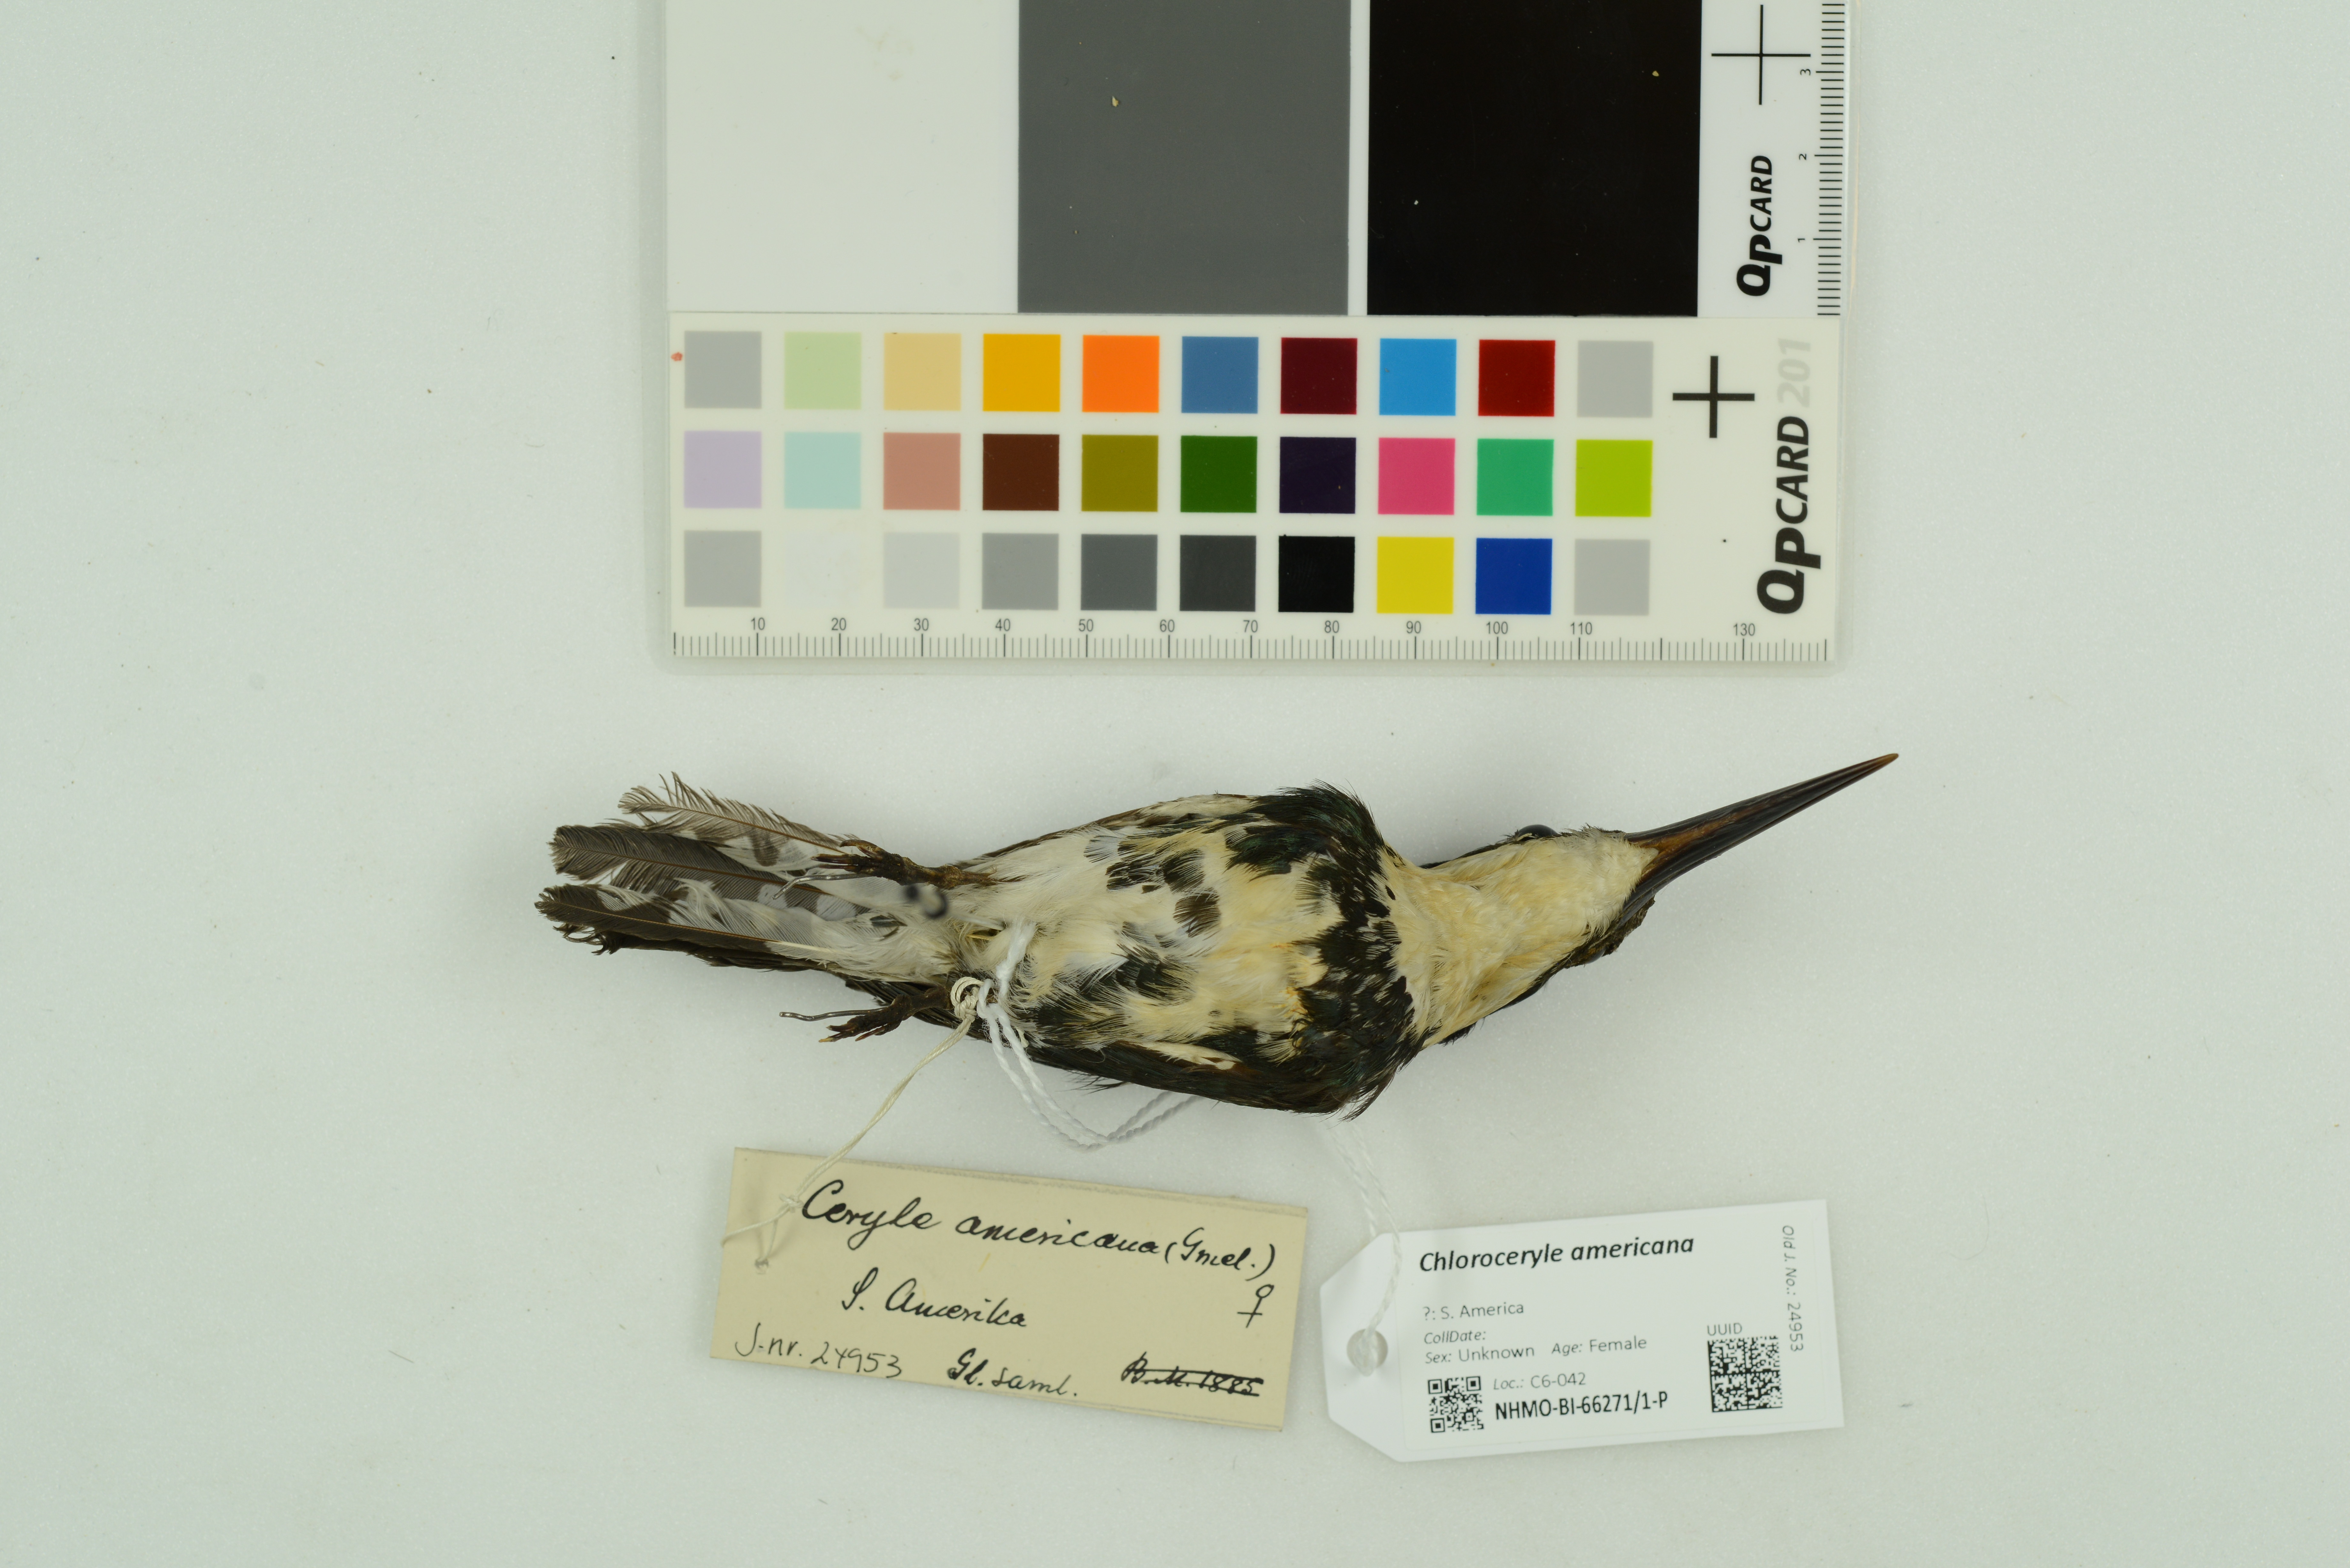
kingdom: Animalia
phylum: Chordata
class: Aves
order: Coraciiformes
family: Alcedinidae
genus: Chloroceryle
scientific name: Chloroceryle americana
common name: Green kingfisher
